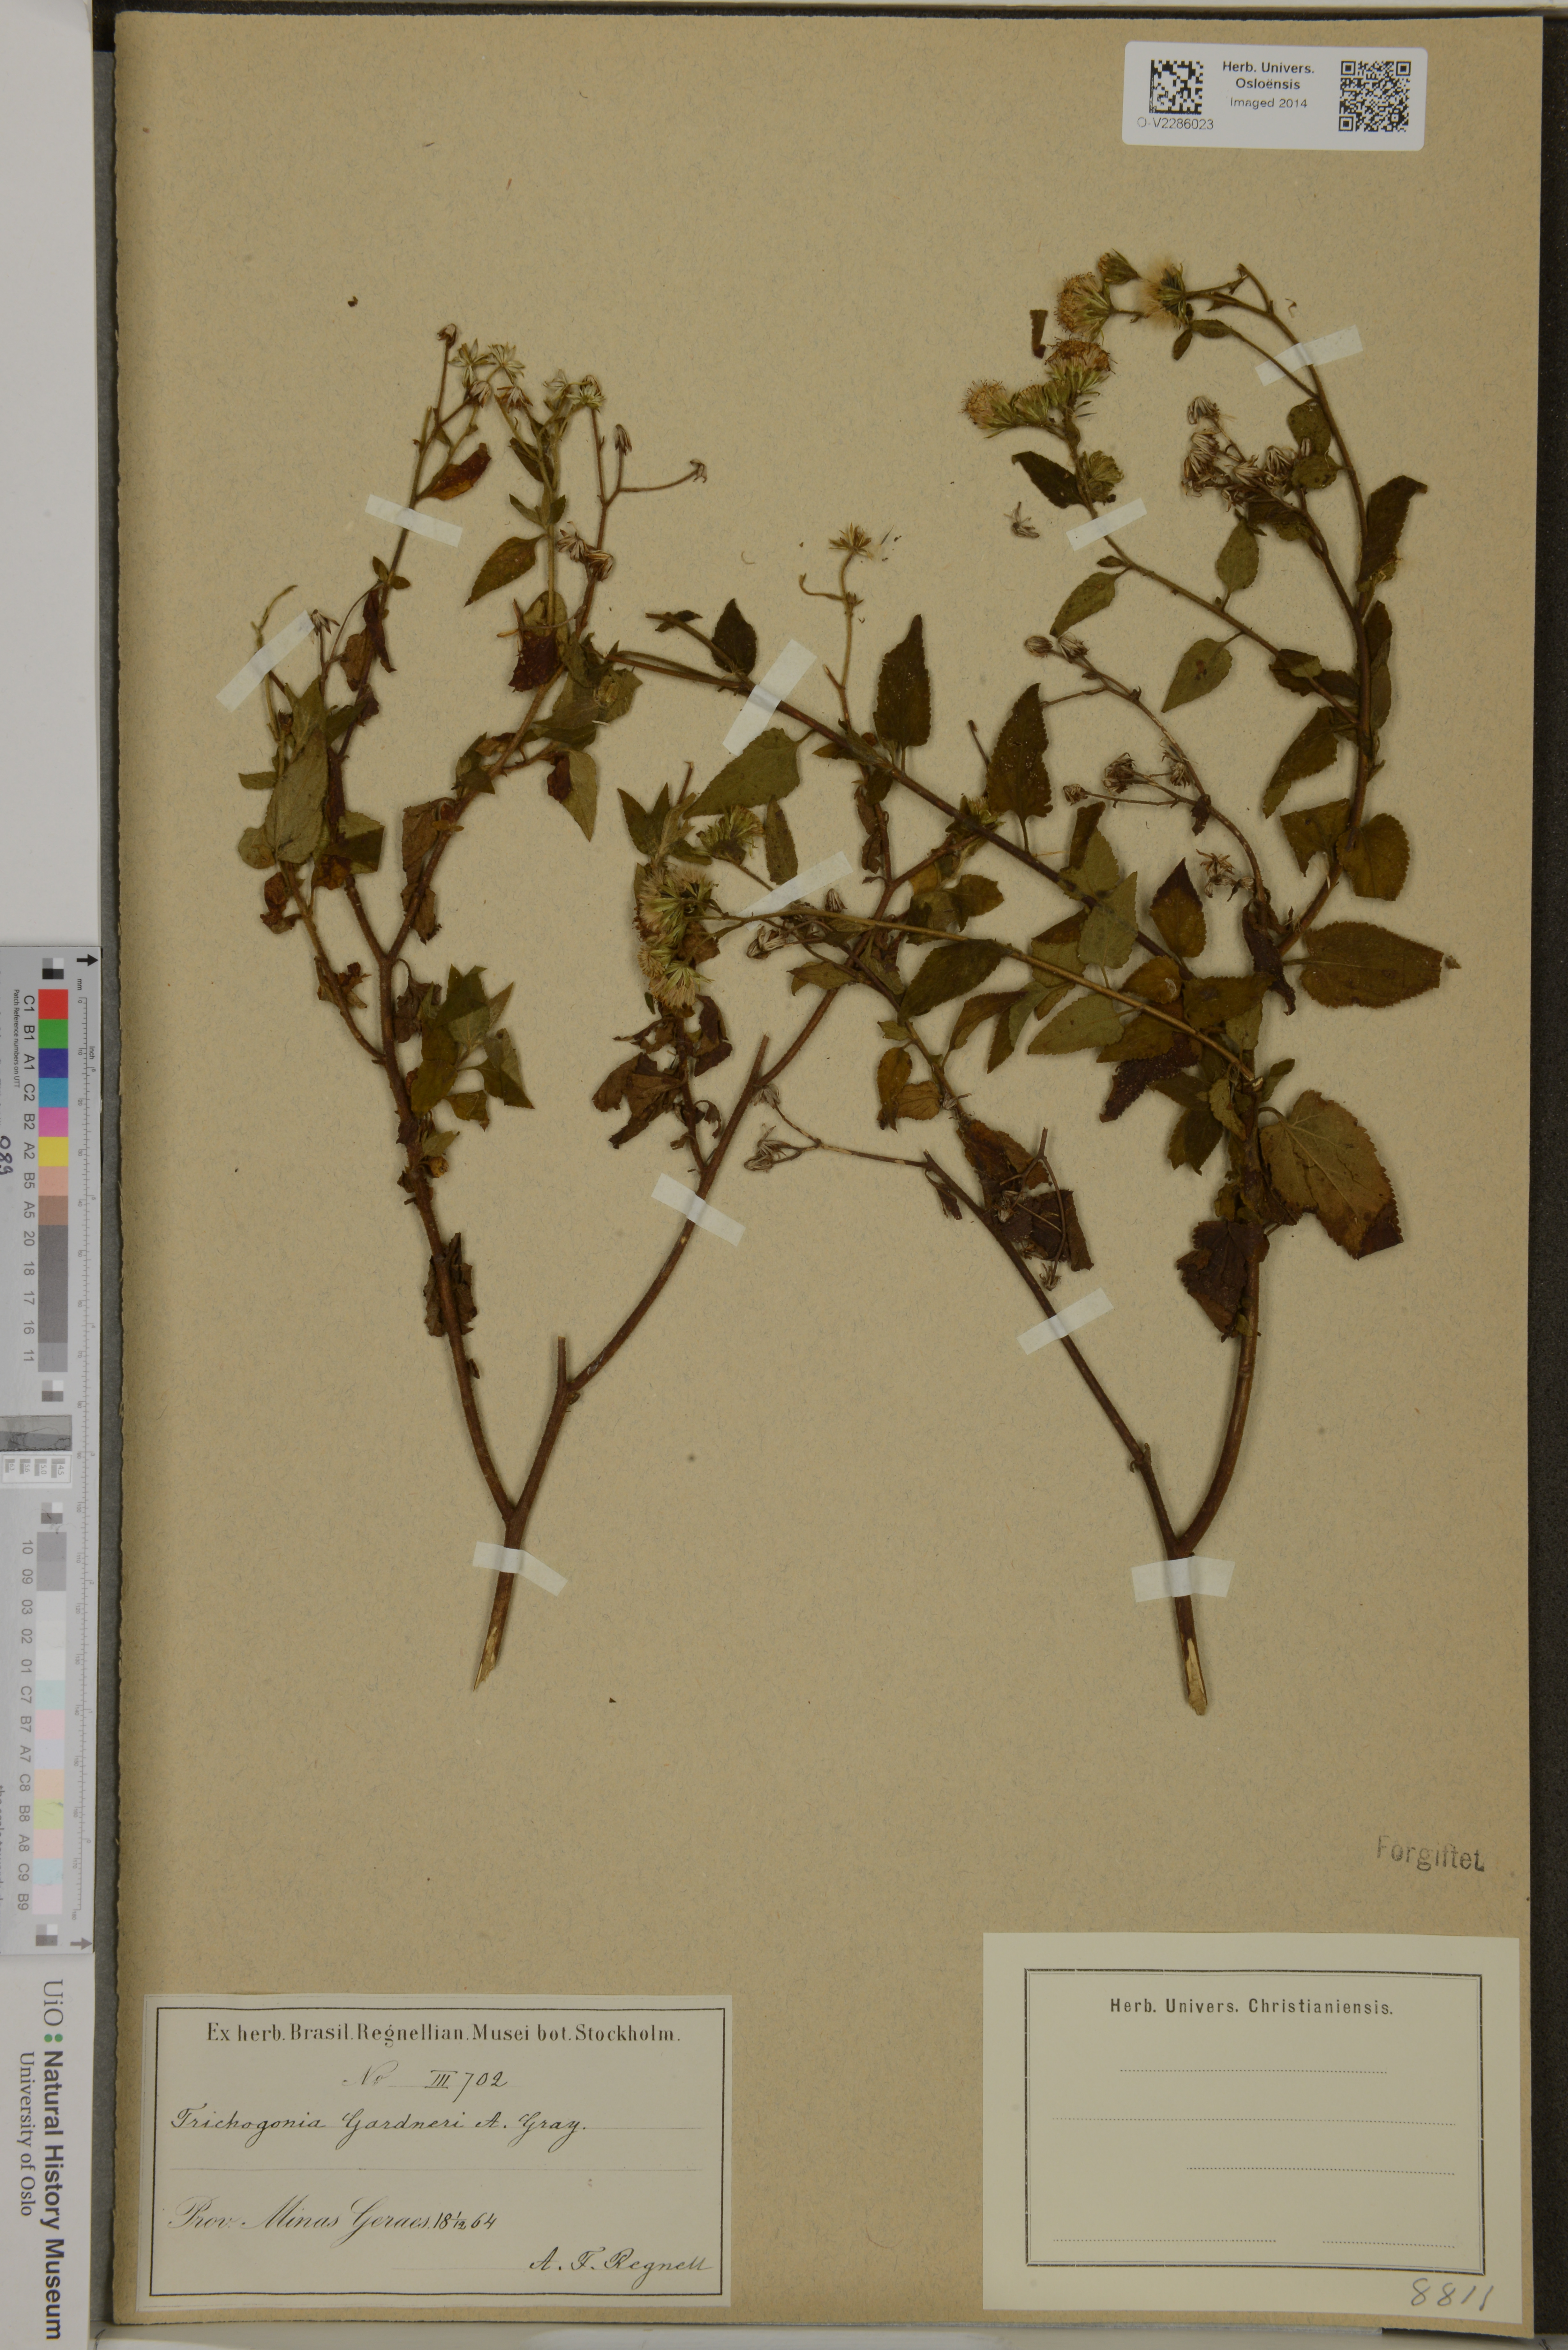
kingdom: Plantae
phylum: Tracheophyta
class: Magnoliopsida
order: Asterales
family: Asteraceae
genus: Trichogoniopsis
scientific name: Trichogoniopsis adenantha
